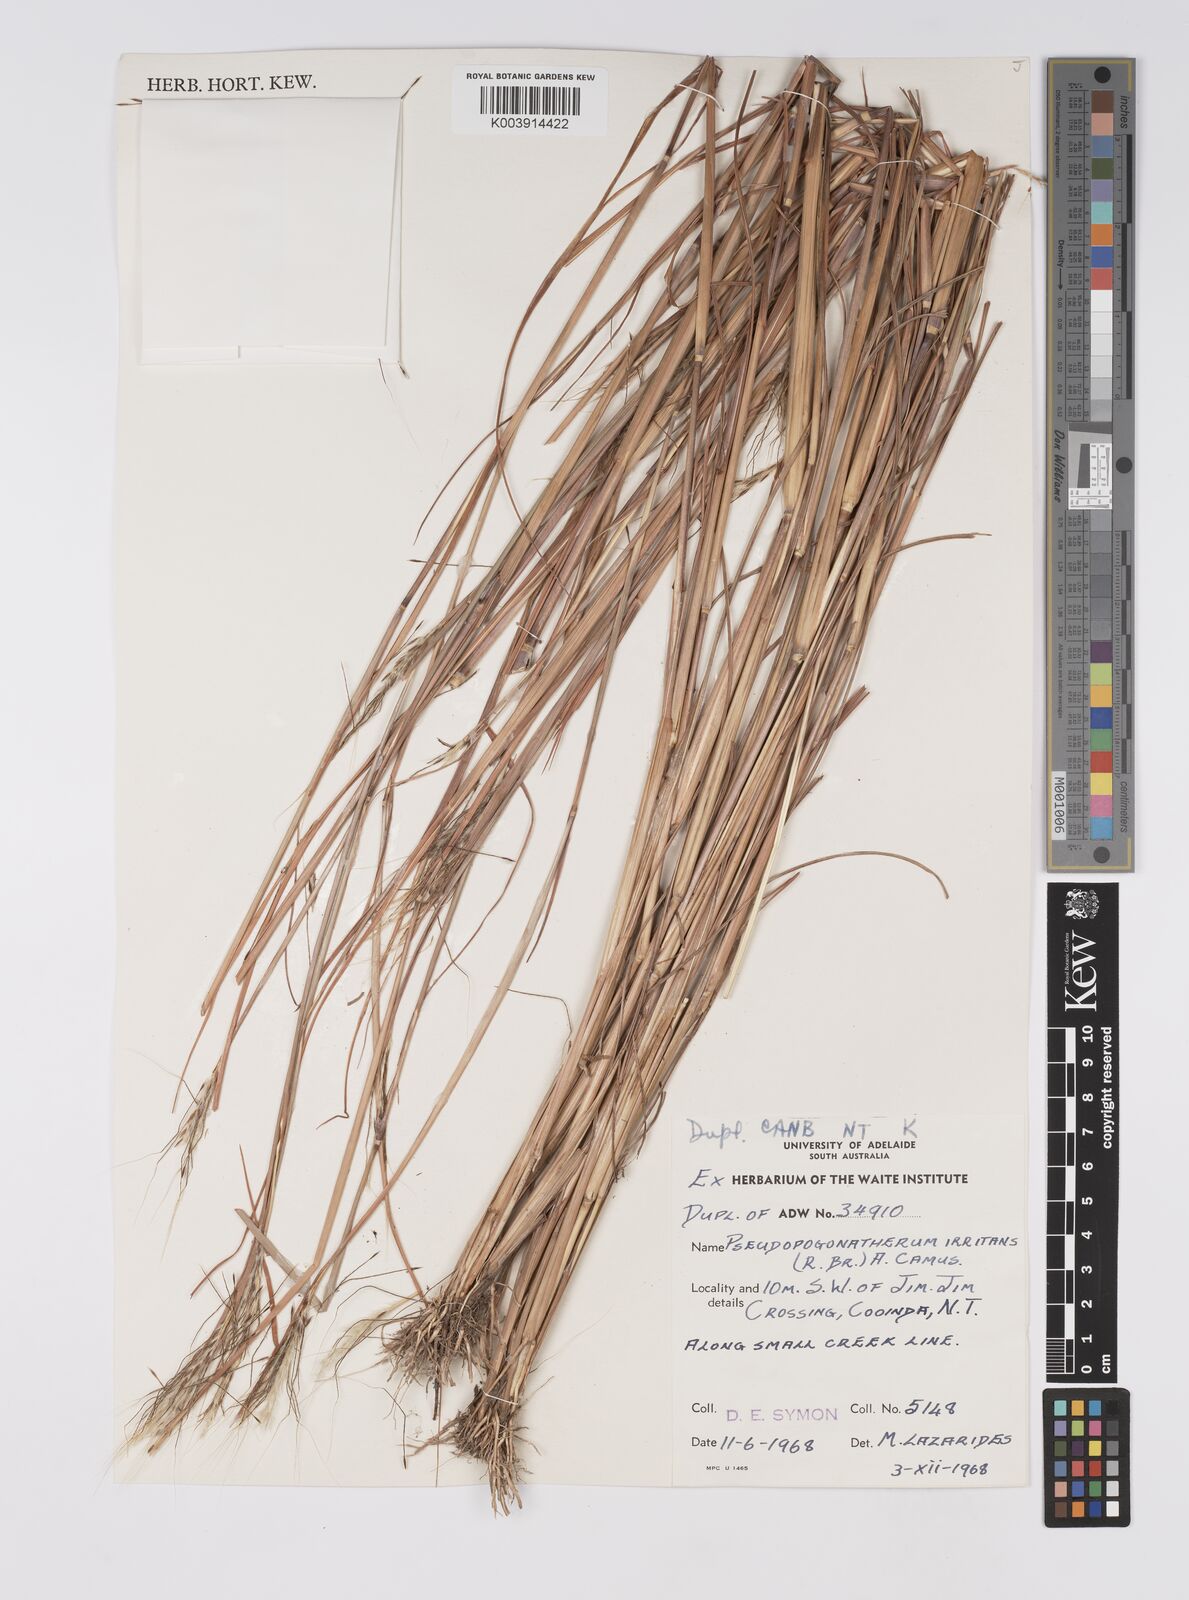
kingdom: Plantae
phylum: Tracheophyta
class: Liliopsida
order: Poales
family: Poaceae
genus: Pseudopogonatherum
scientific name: Pseudopogonatherum irritans
